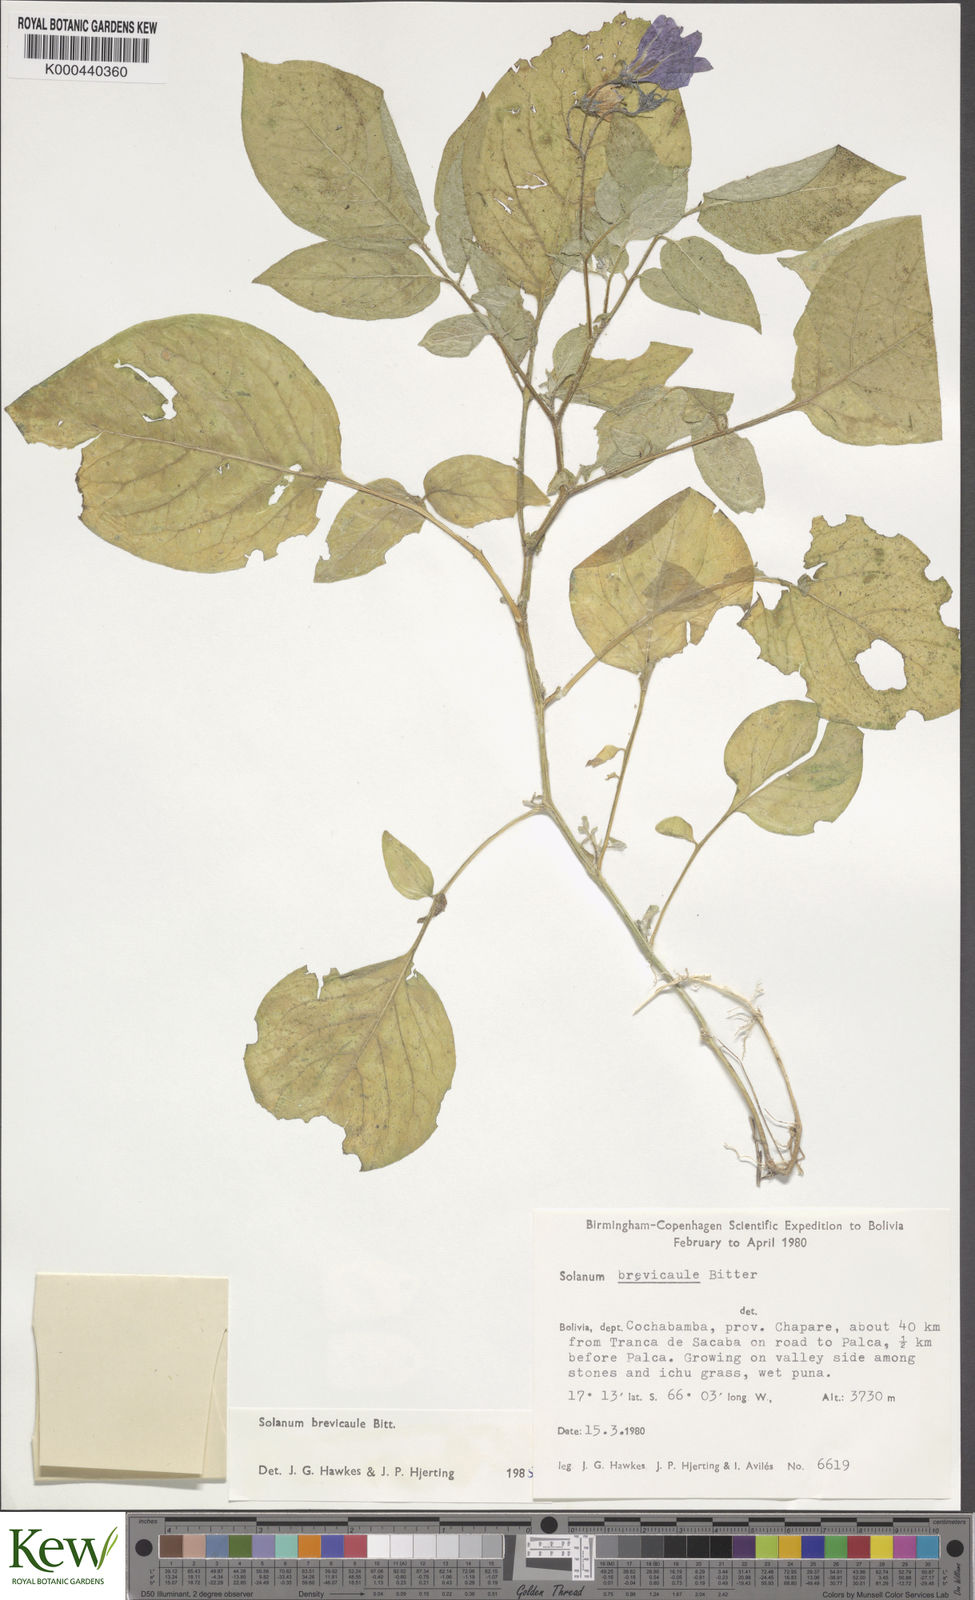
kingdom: Plantae
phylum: Tracheophyta
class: Magnoliopsida
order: Solanales
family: Solanaceae
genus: Solanum
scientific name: Solanum brevicaule
